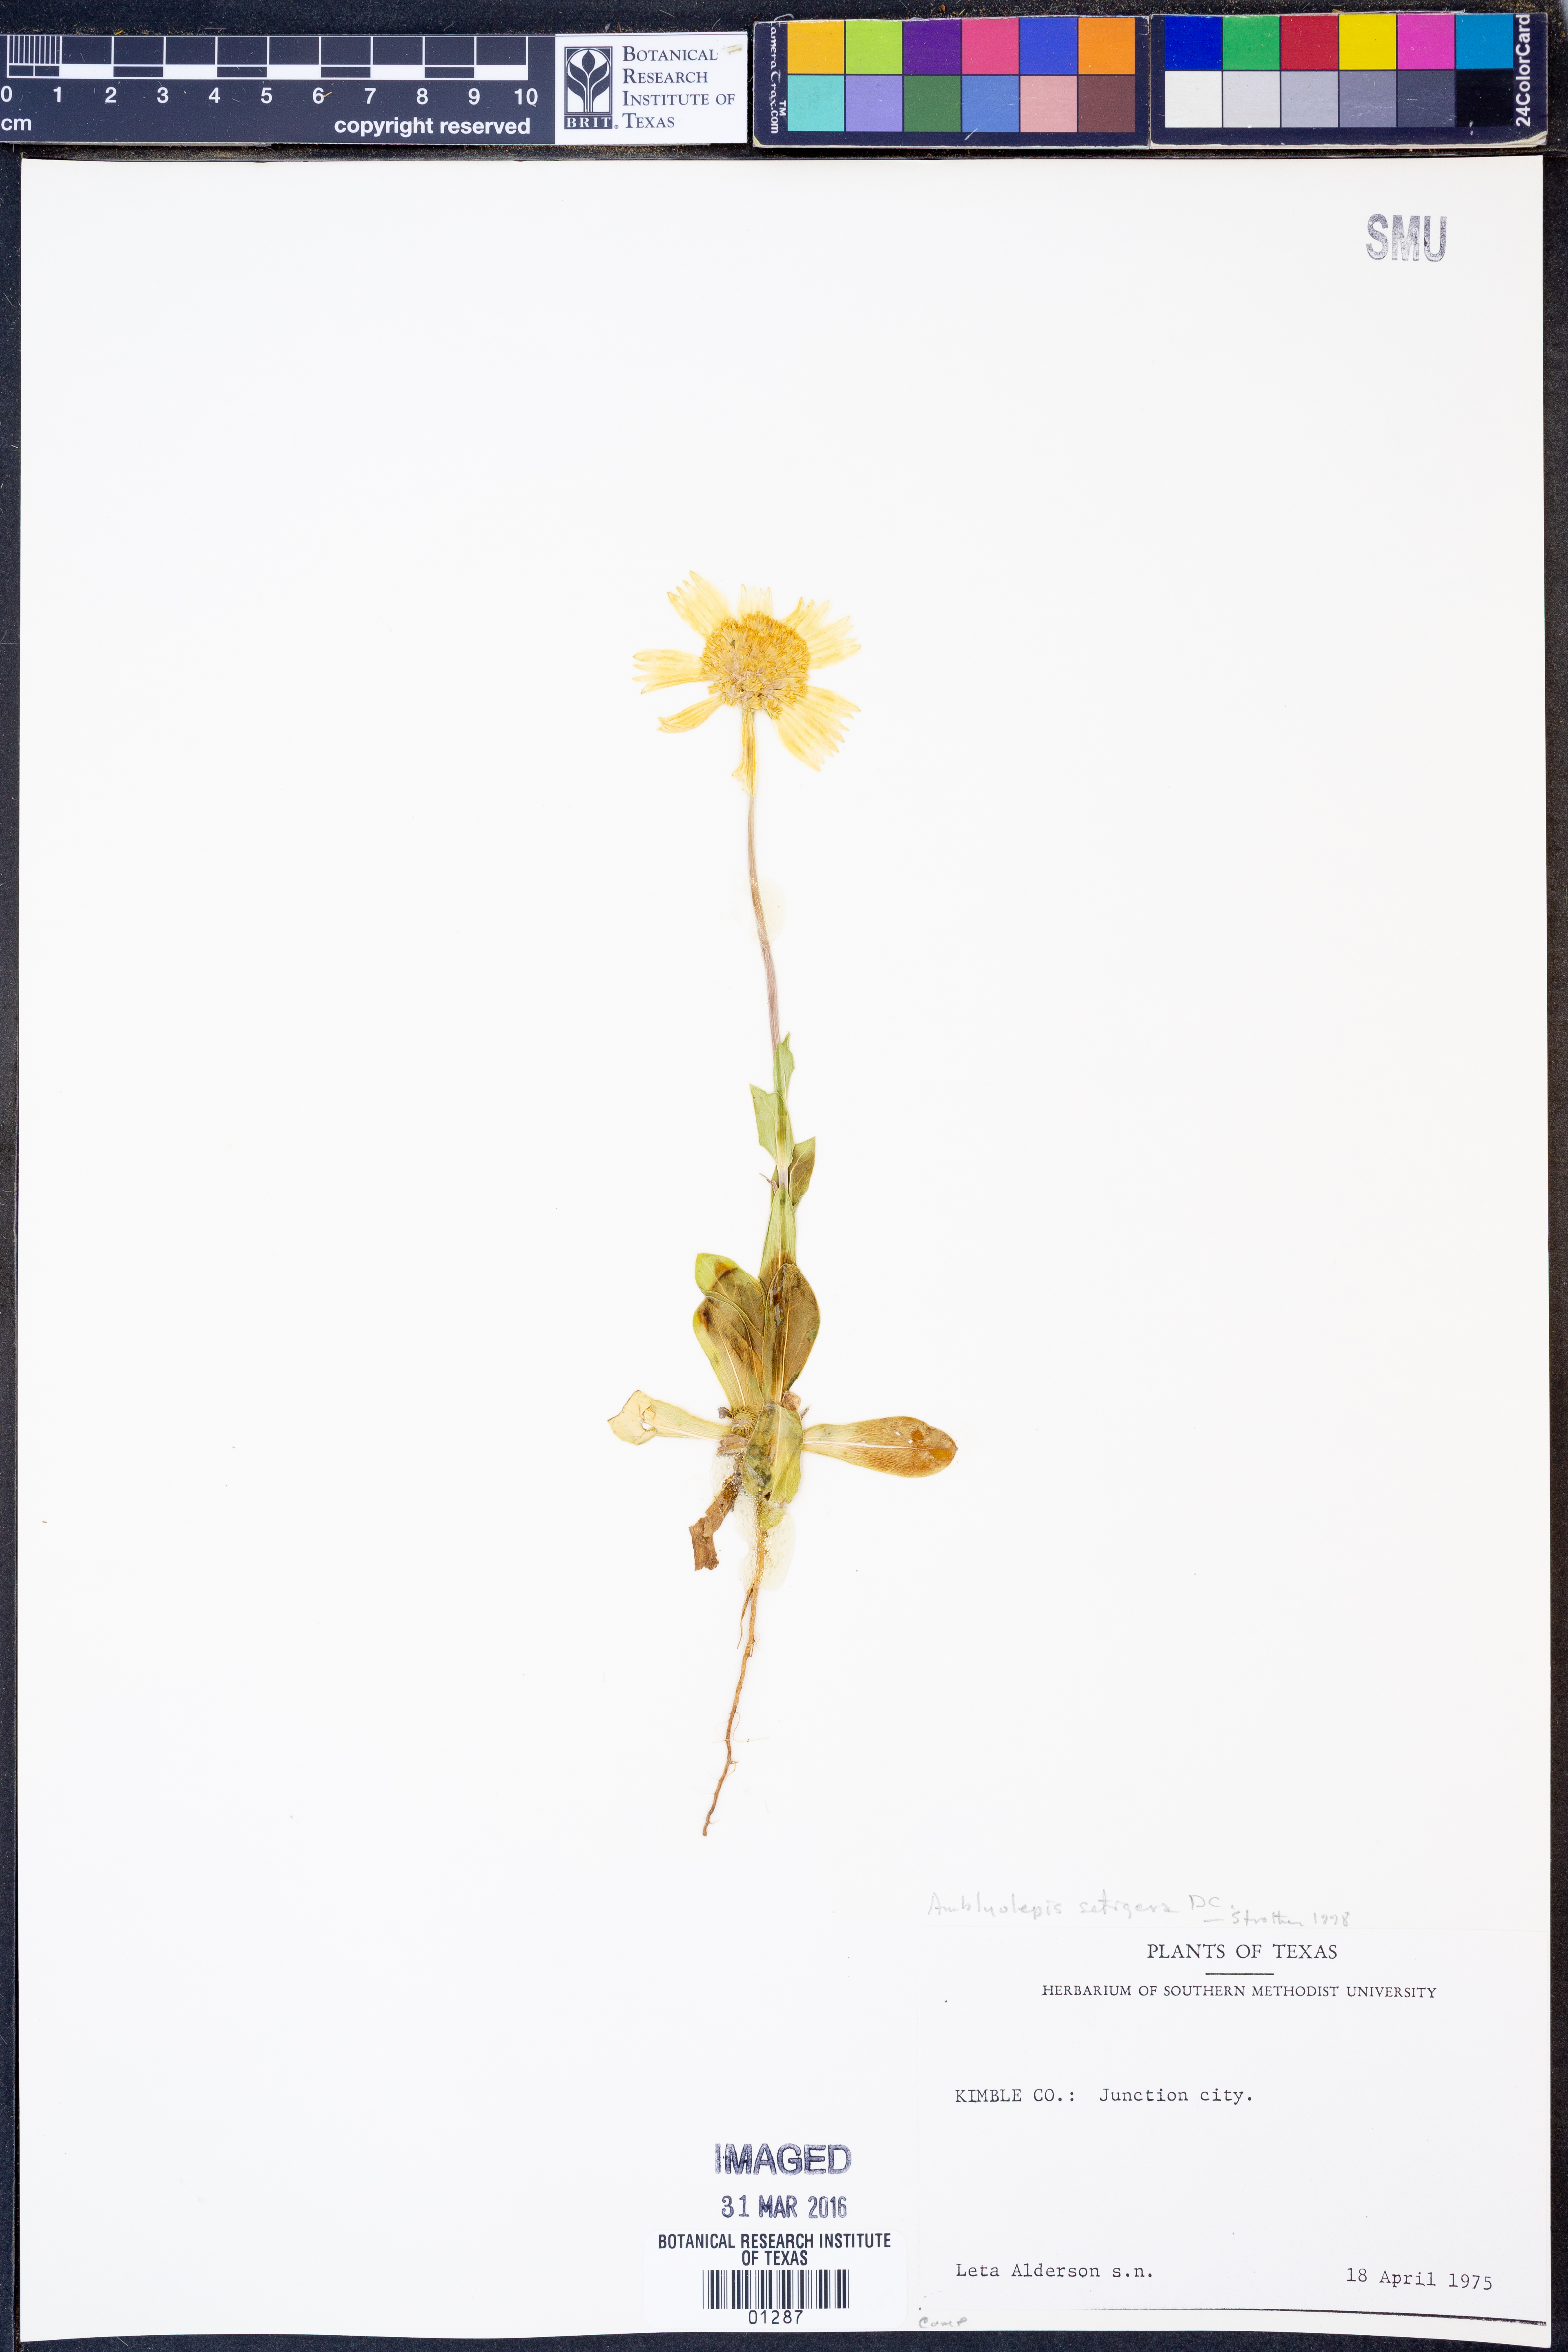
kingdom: Plantae
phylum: Tracheophyta
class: Magnoliopsida
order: Asterales
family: Asteraceae
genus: Amblyolepis
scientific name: Amblyolepis setigera
